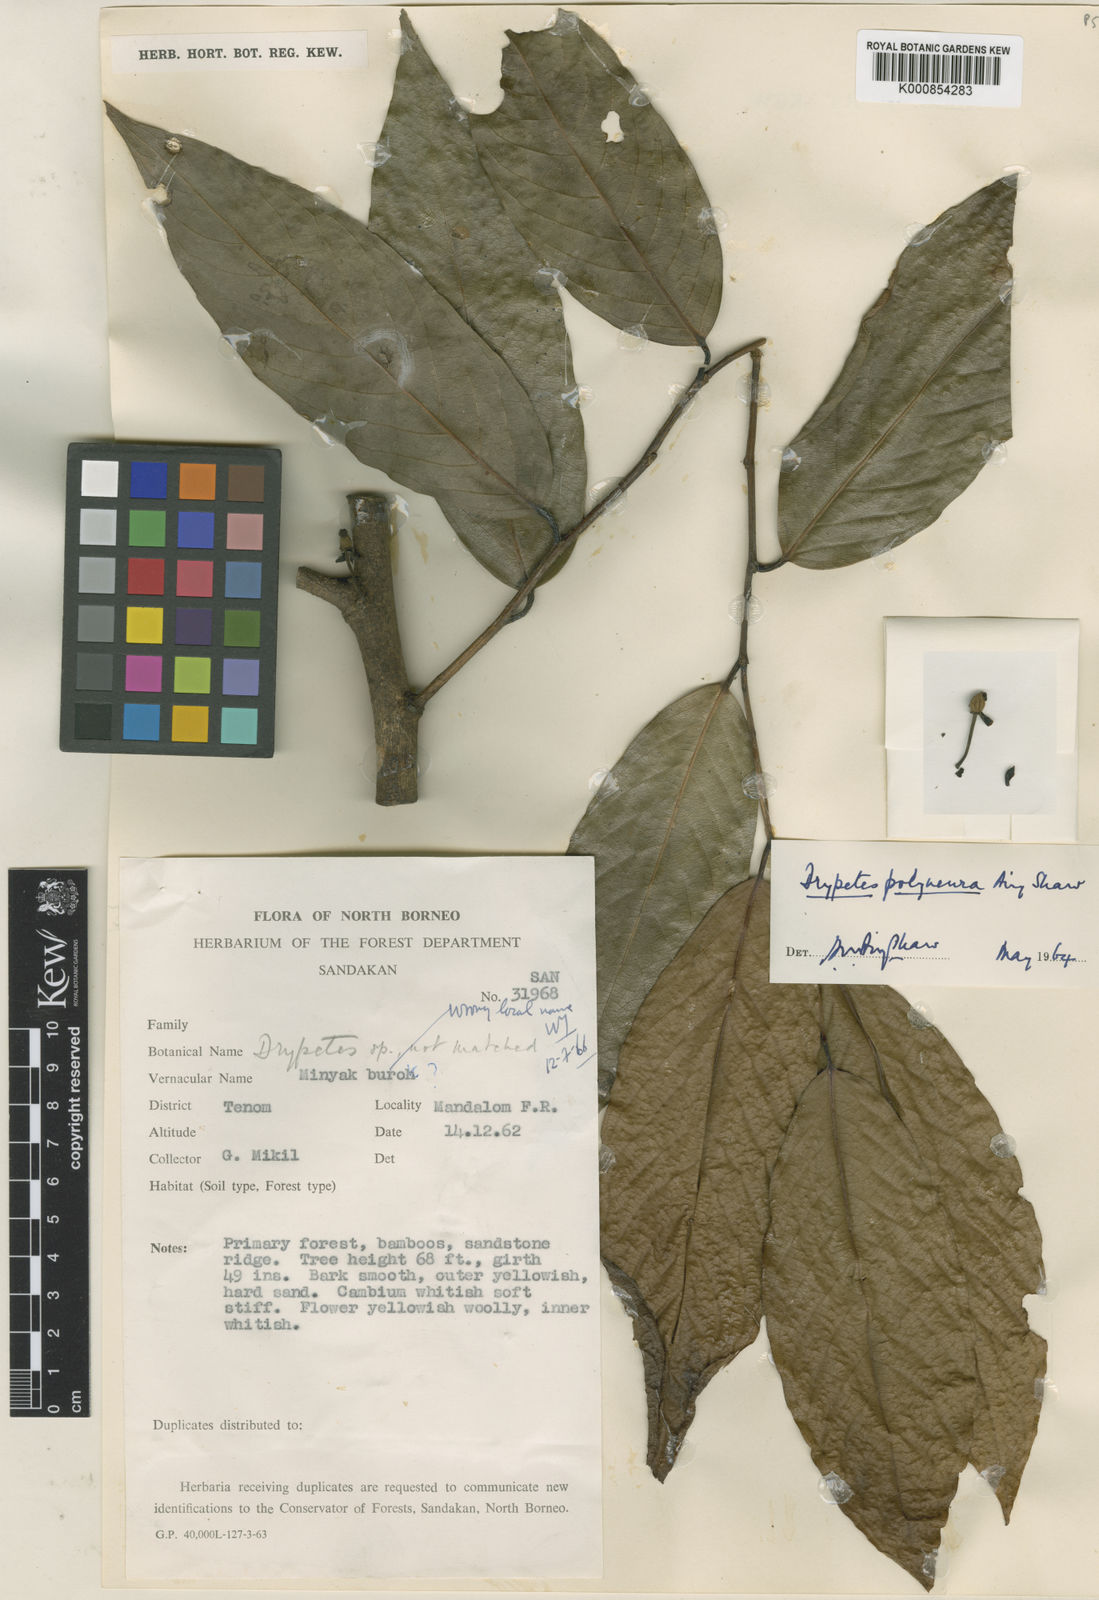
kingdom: Plantae
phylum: Tracheophyta
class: Magnoliopsida
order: Malpighiales
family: Putranjivaceae
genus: Drypetes
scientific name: Drypetes polyneura
